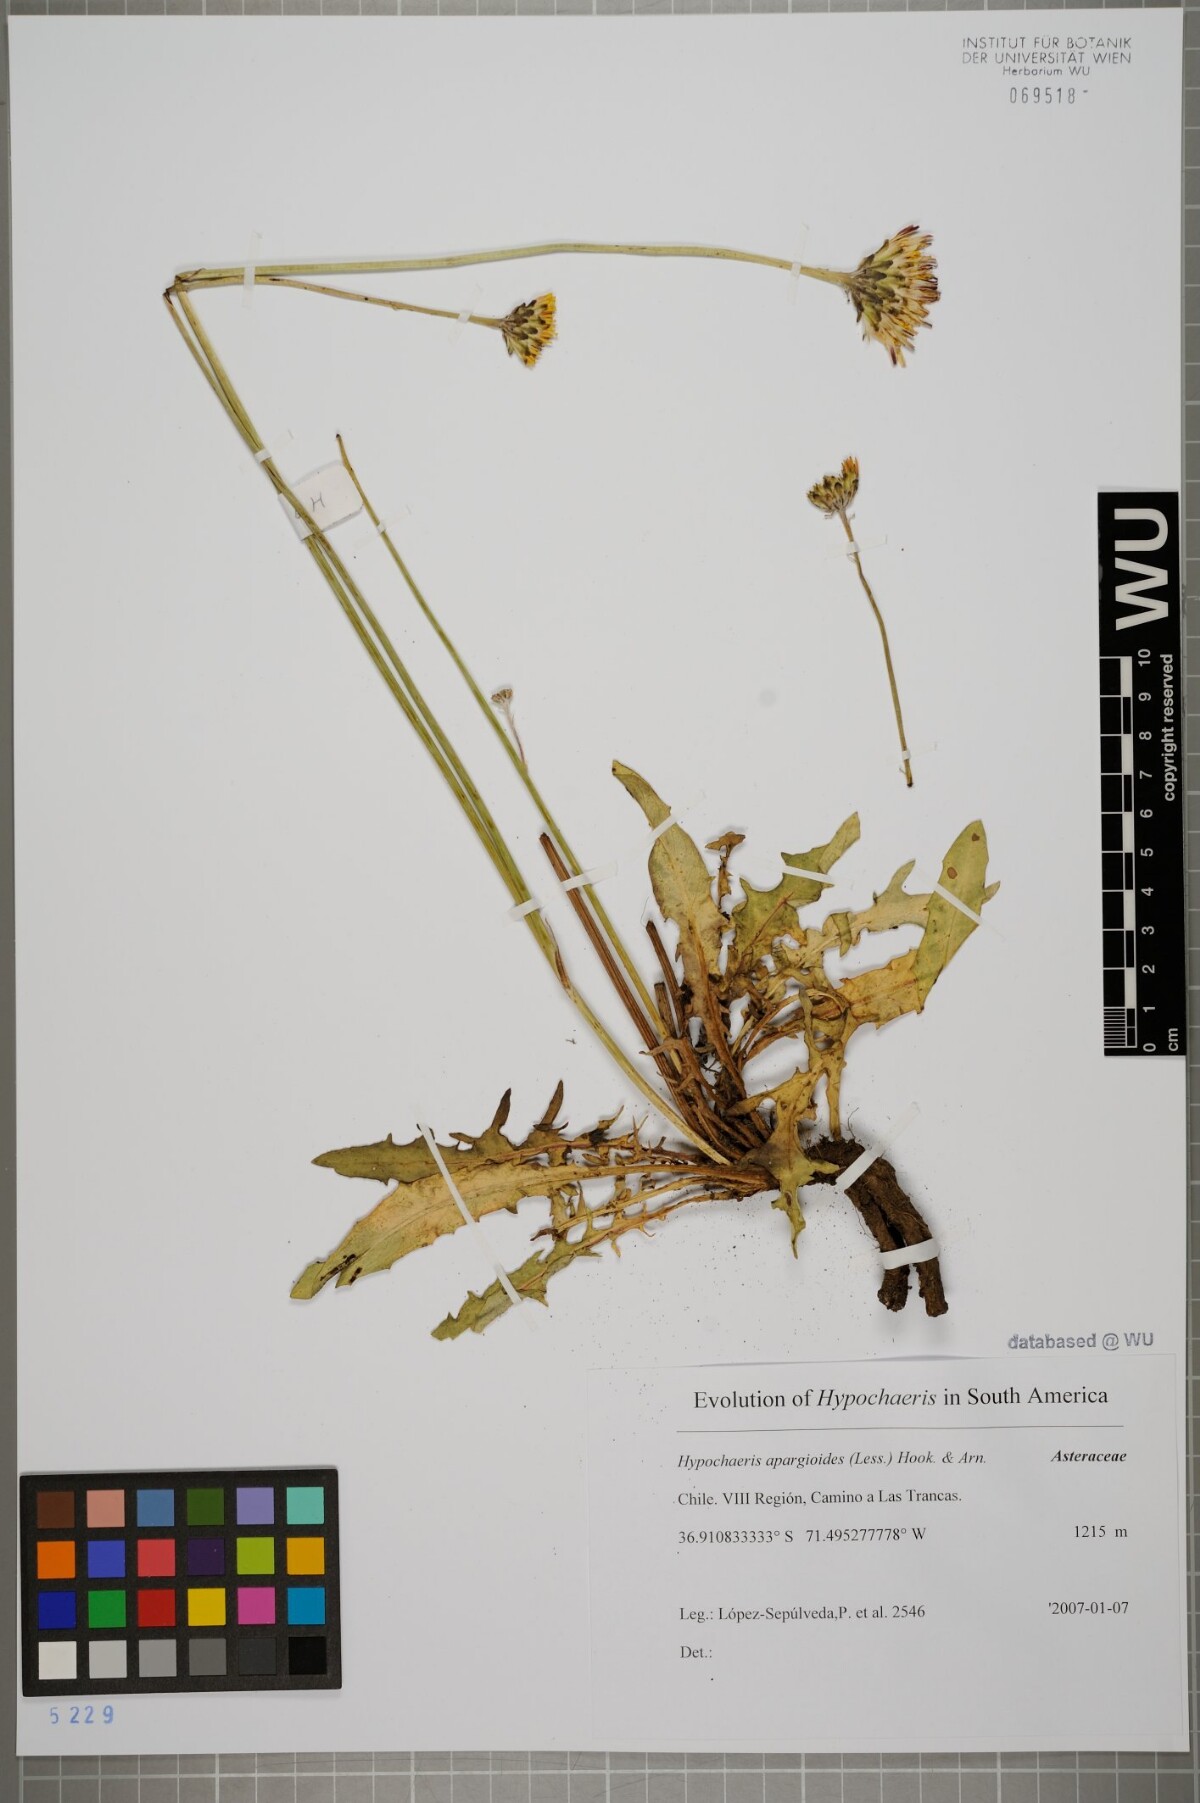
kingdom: Plantae
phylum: Tracheophyta
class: Magnoliopsida
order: Asterales
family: Asteraceae
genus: Hypochaeris
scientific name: Hypochaeris apargioides
